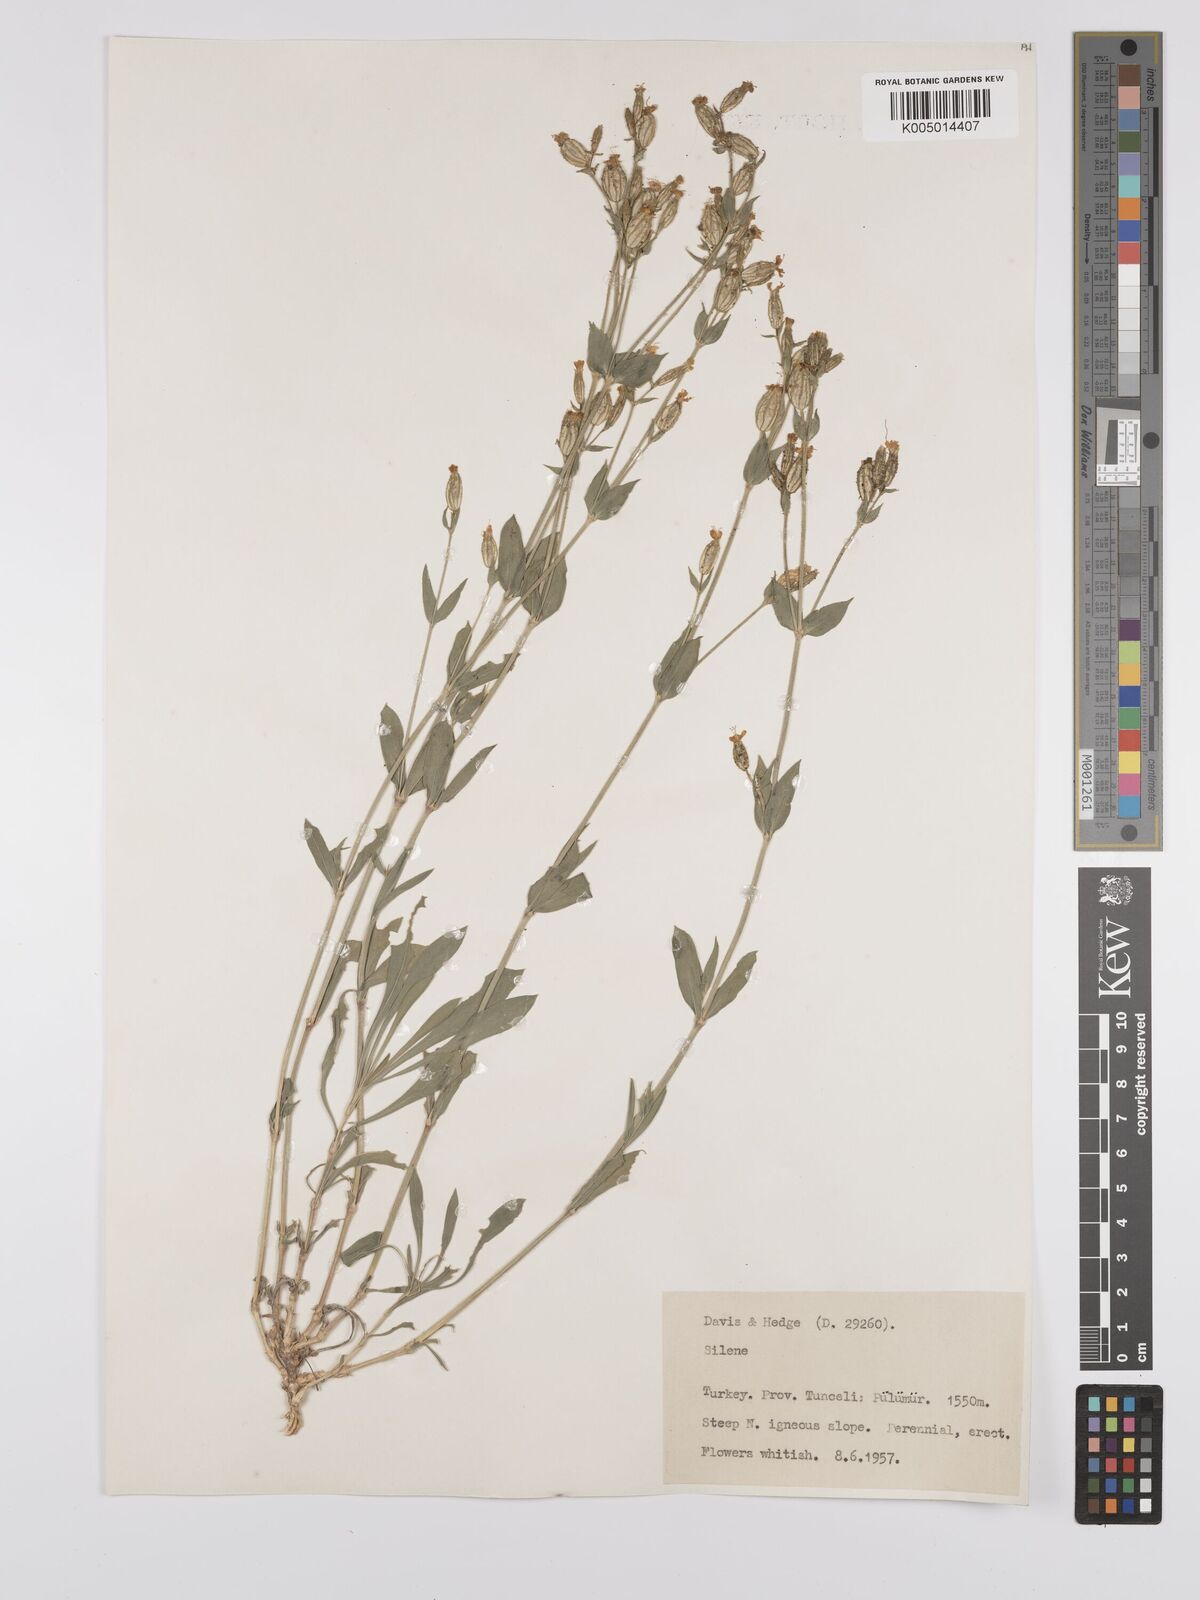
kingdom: Plantae
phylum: Tracheophyta
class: Magnoliopsida
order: Caryophyllales
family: Caryophyllaceae
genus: Silene
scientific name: Silene
